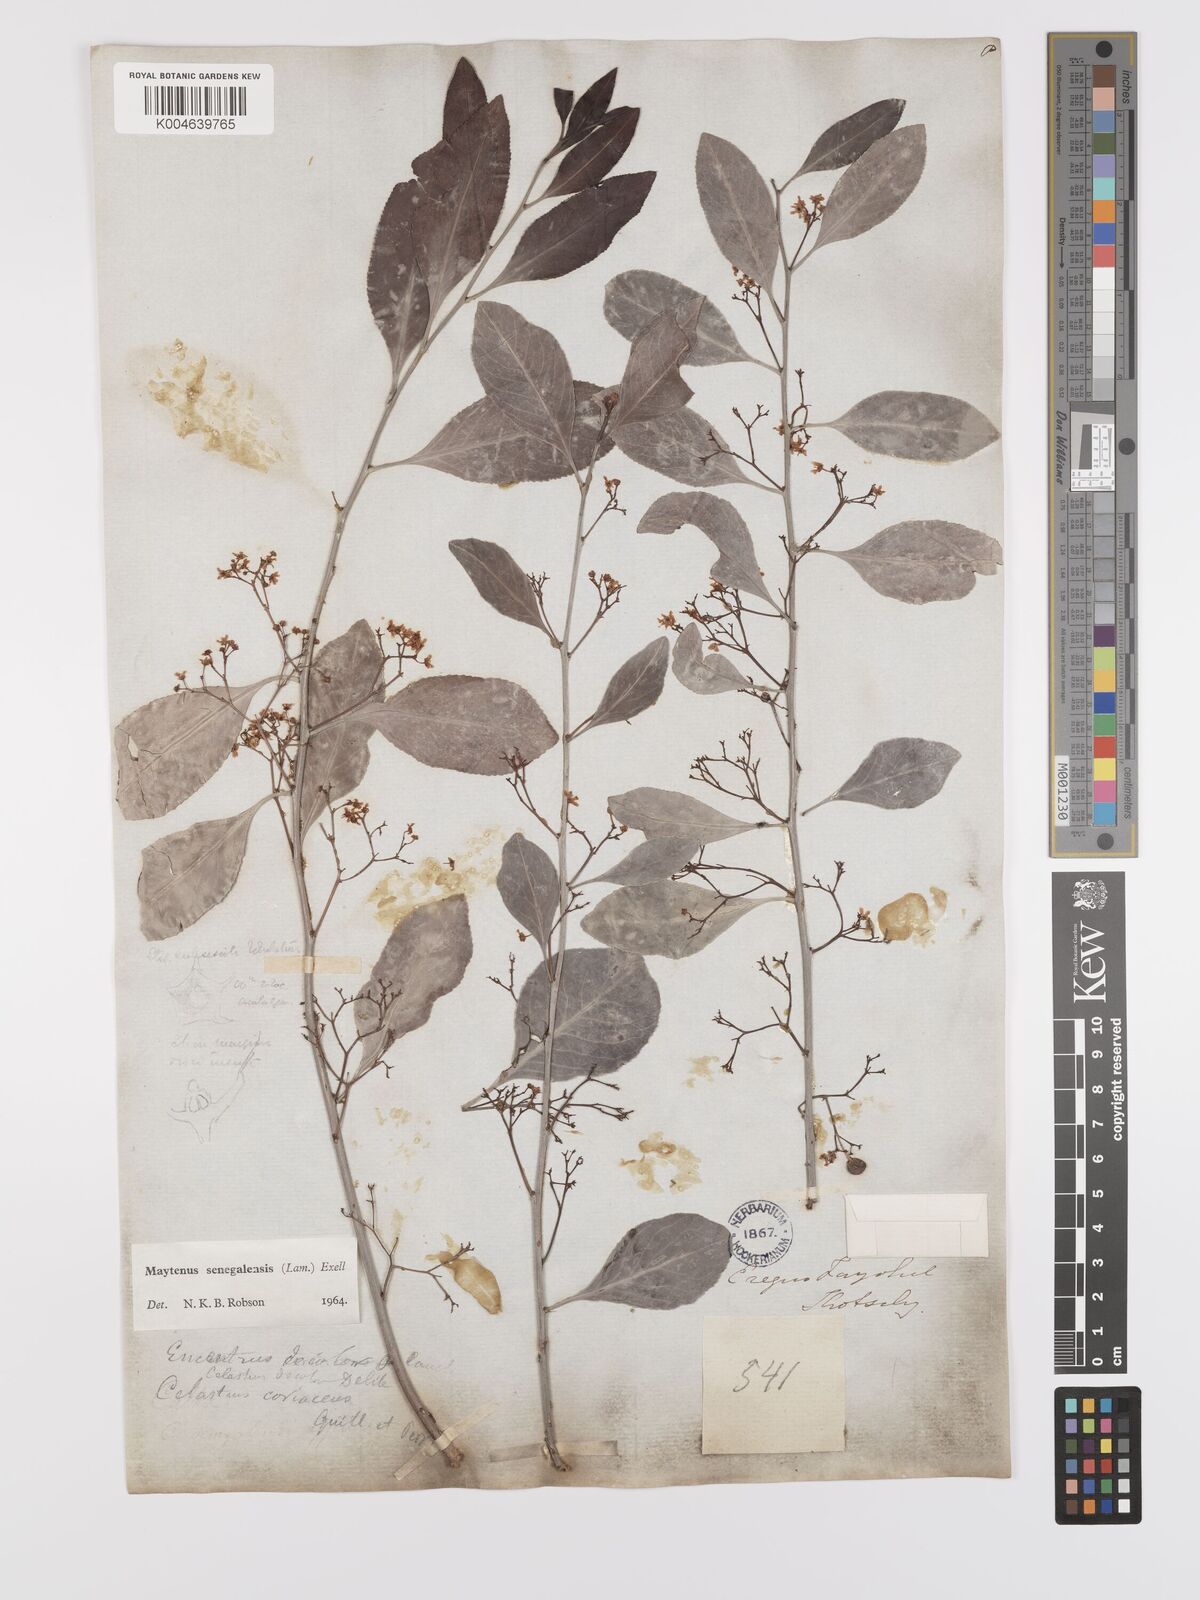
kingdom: Plantae
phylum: Tracheophyta
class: Magnoliopsida
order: Celastrales
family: Celastraceae
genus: Gymnosporia
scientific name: Gymnosporia senegalensis
